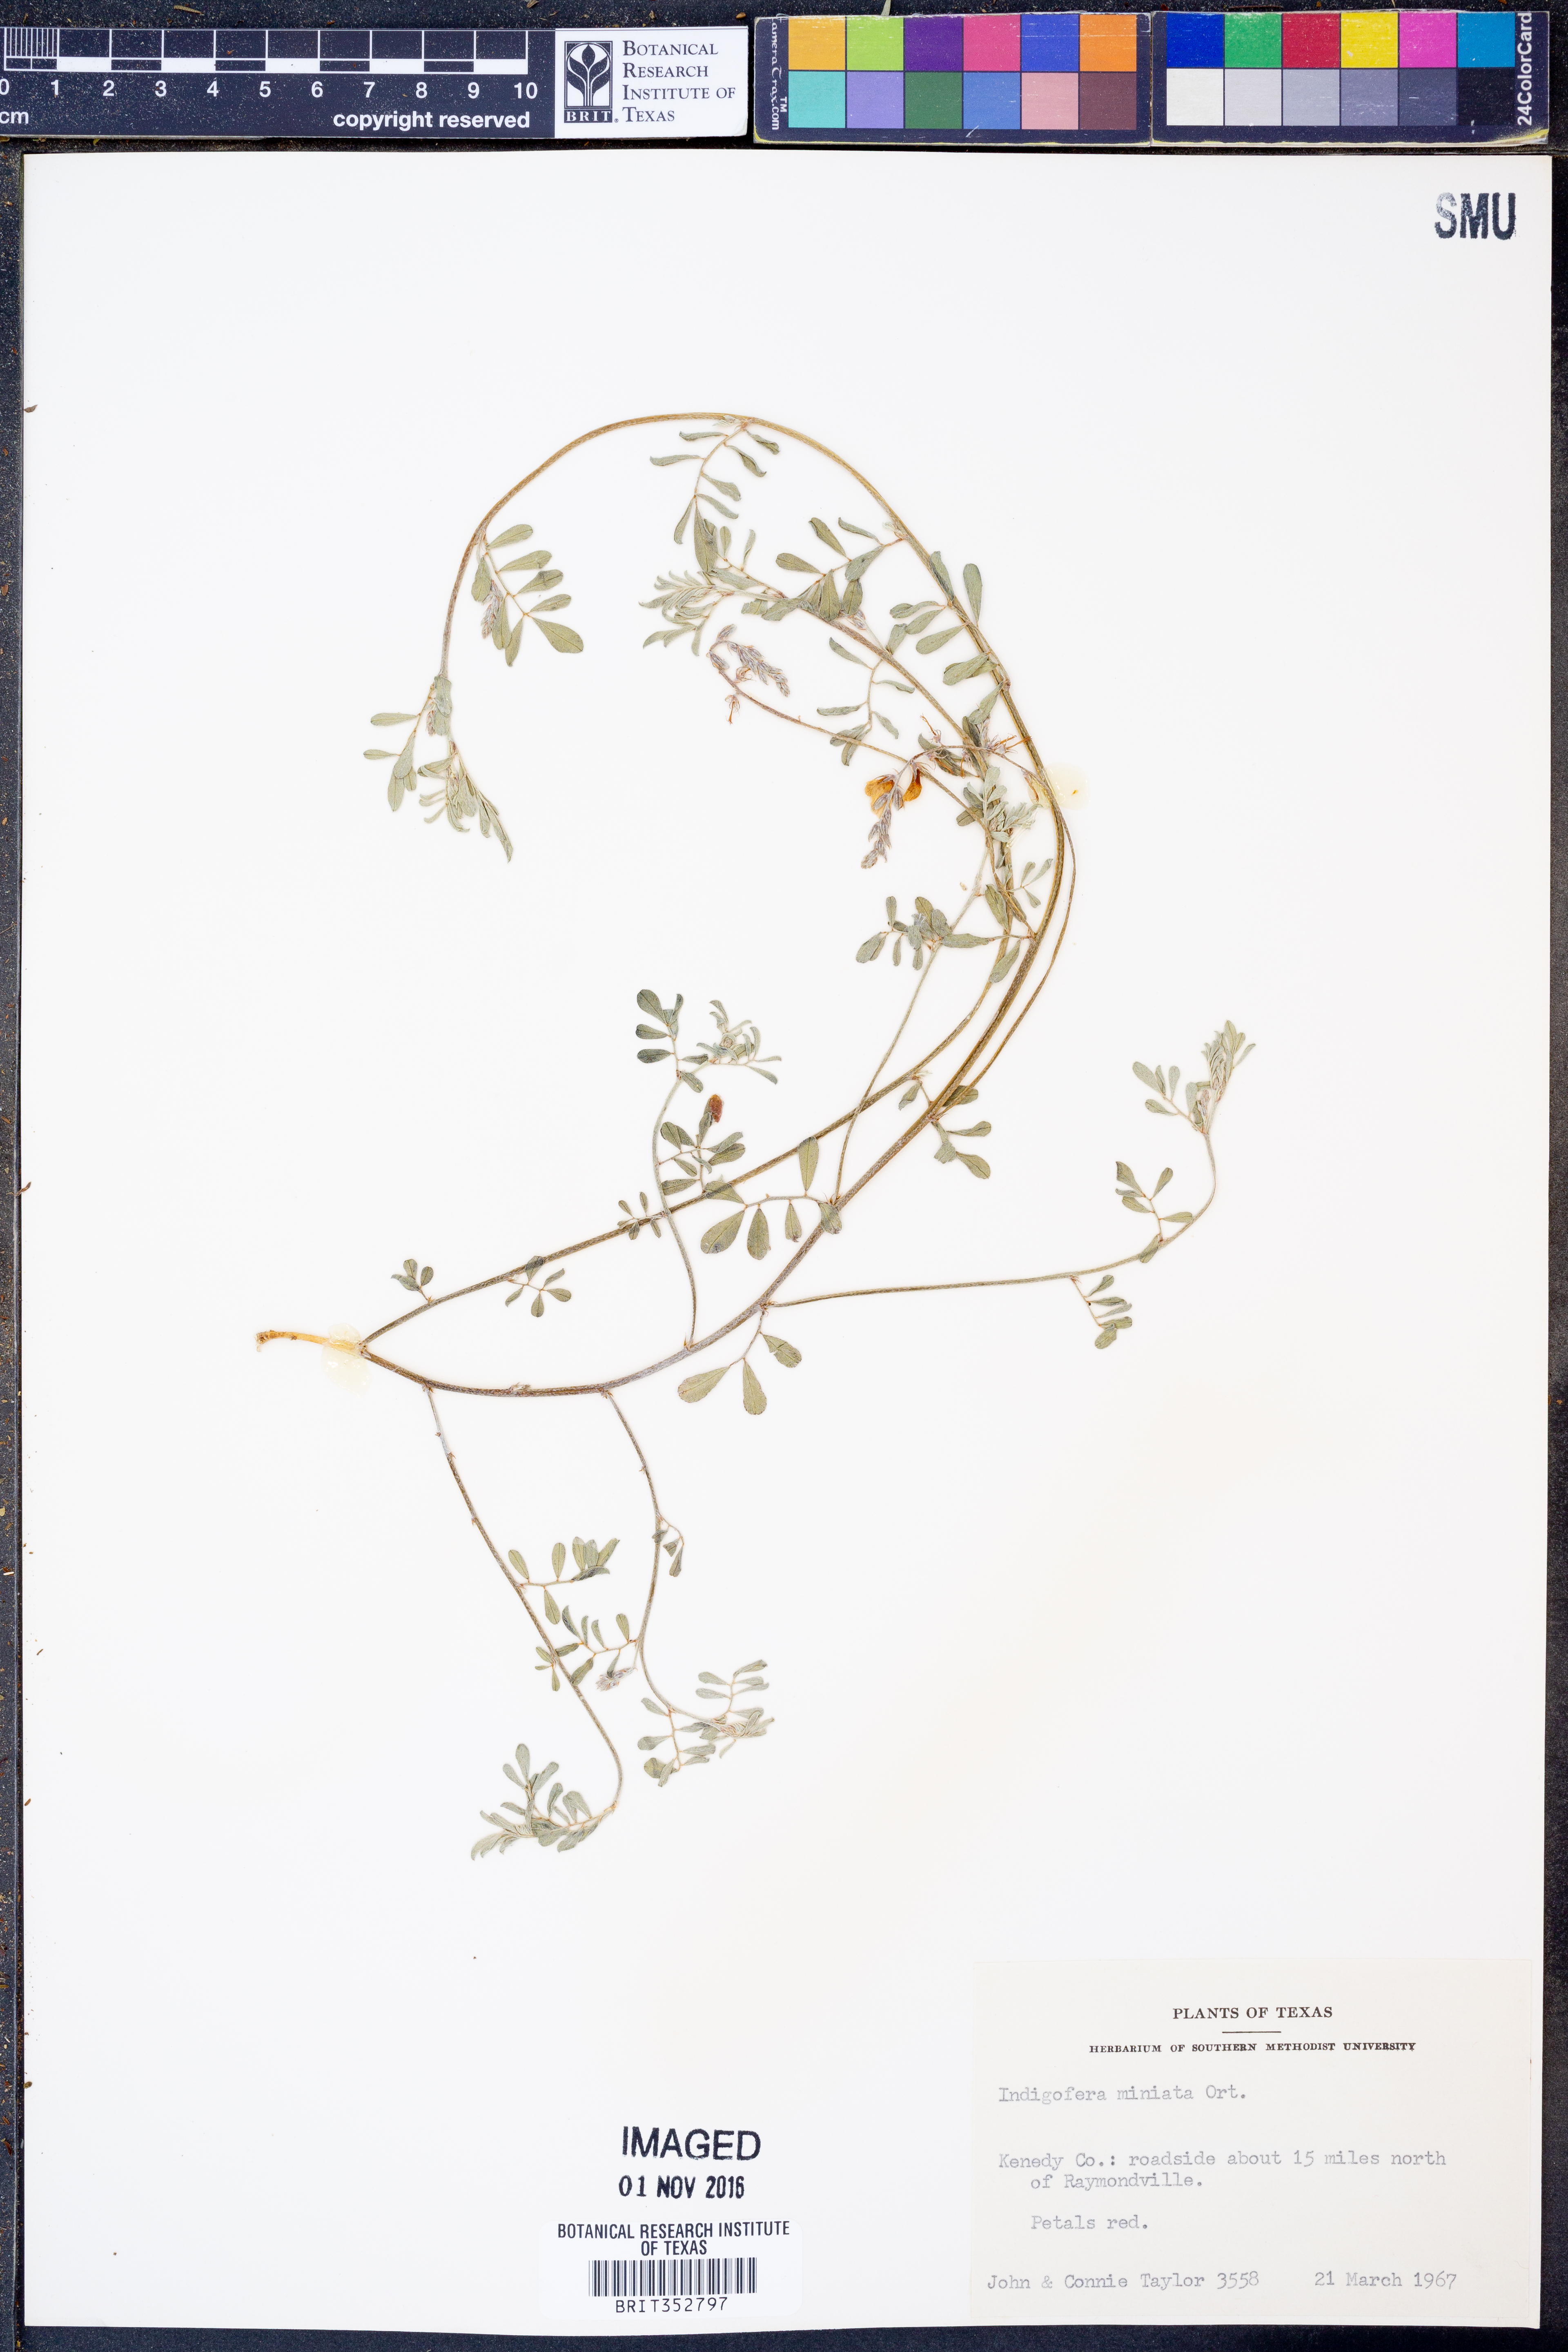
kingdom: Plantae
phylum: Tracheophyta
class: Magnoliopsida
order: Fabales
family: Fabaceae
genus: Indigofera
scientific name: Indigofera miniata
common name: Coast indigo
